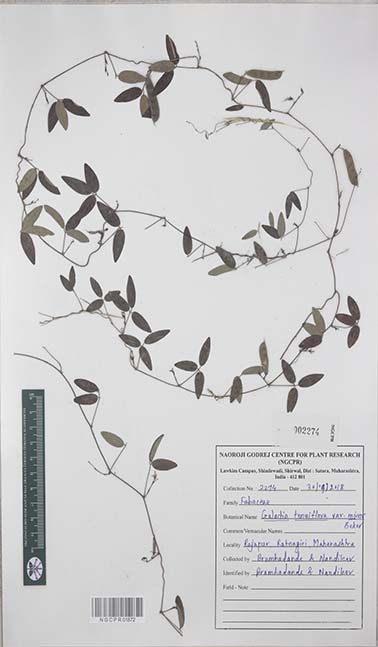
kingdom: Plantae
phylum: Tracheophyta
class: Magnoliopsida
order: Fabales
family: Fabaceae
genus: Galactia
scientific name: Galactia striata
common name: Florida hammock milkpea
